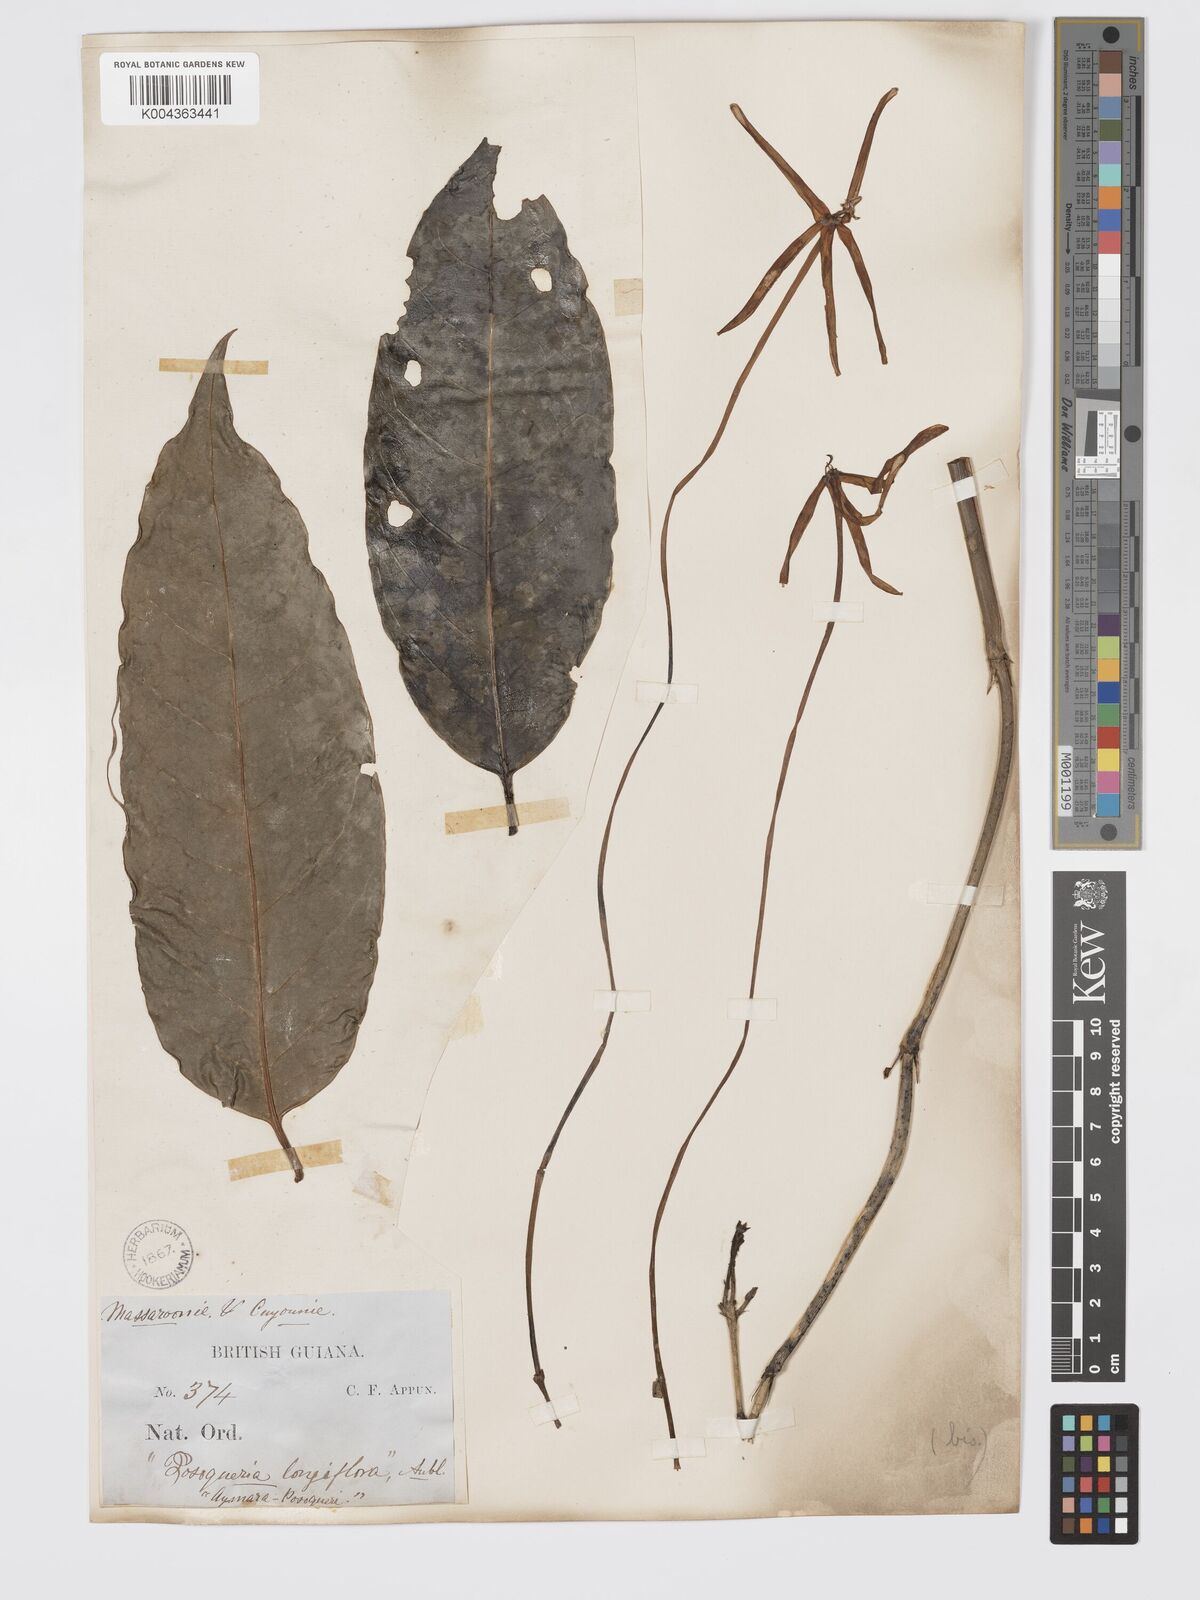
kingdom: Plantae
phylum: Tracheophyta
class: Magnoliopsida
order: Gentianales
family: Rubiaceae
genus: Posoqueria
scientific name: Posoqueria
